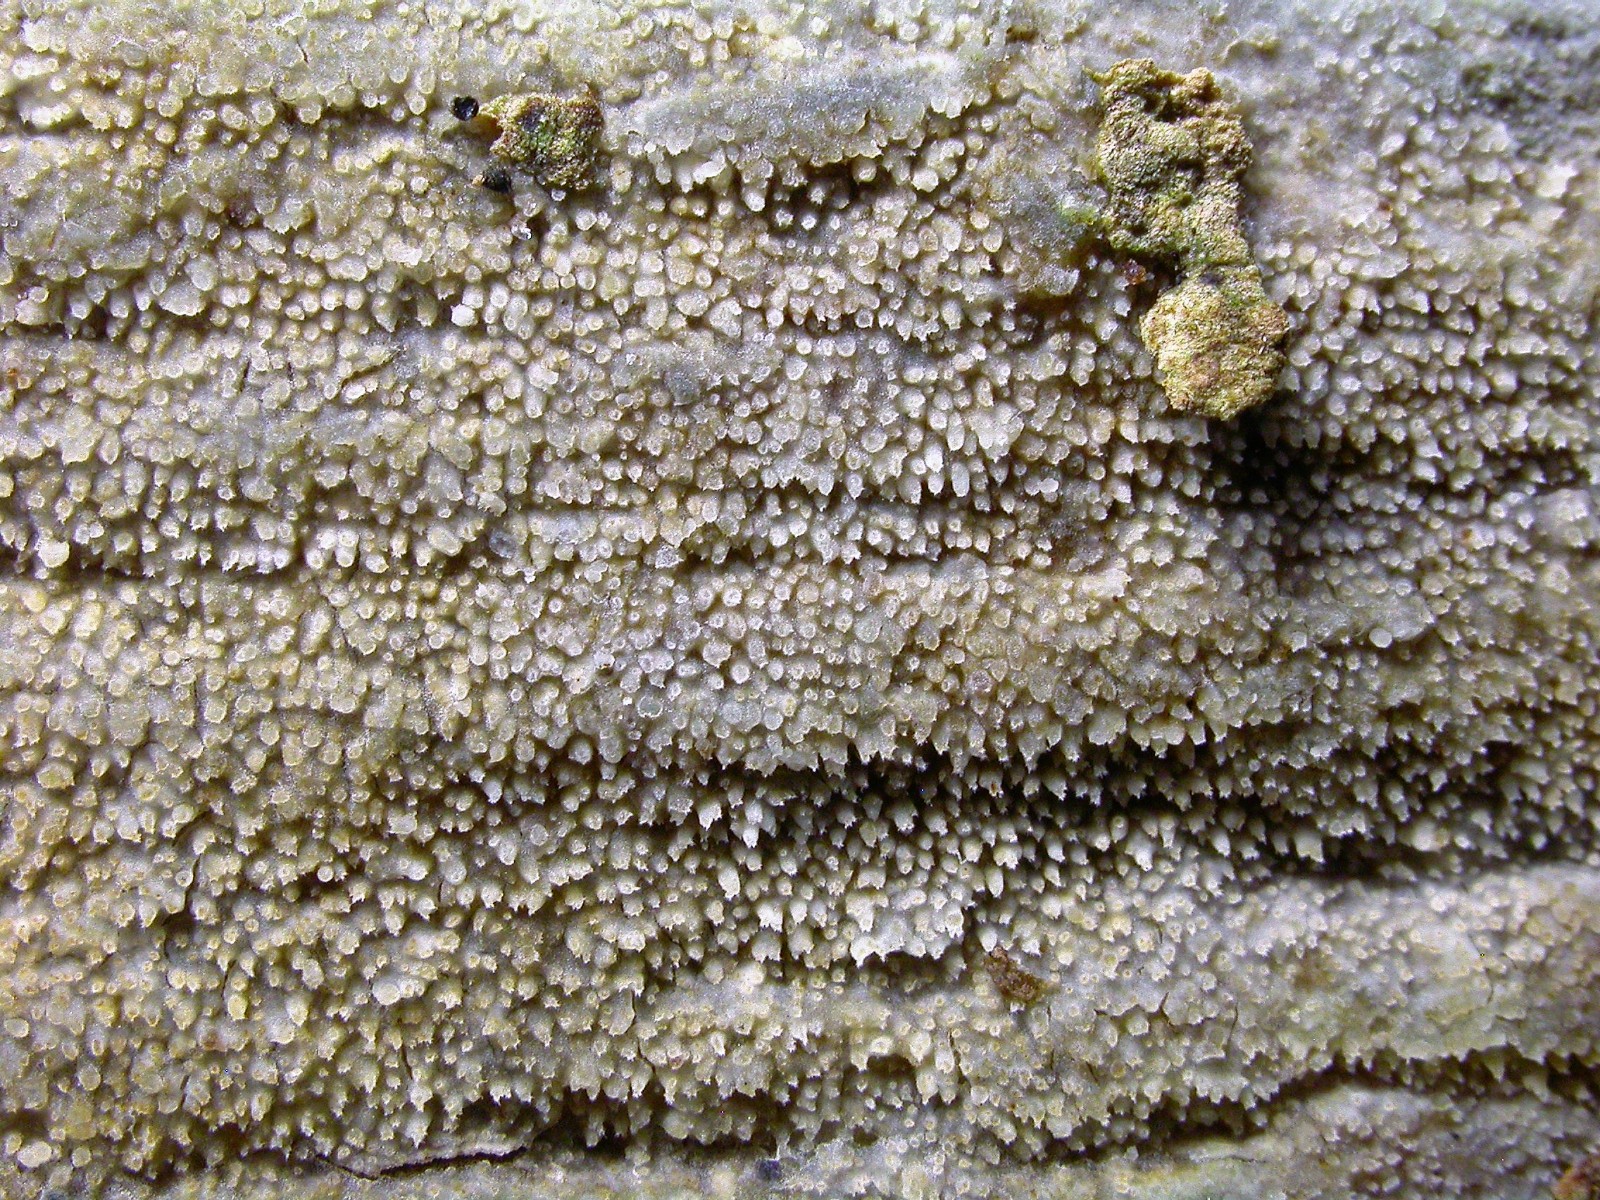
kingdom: Fungi
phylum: Basidiomycota
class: Agaricomycetes
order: Hymenochaetales
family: Rickenellaceae
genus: Resinicium
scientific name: Resinicium bicolor
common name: almindelig vokstand
